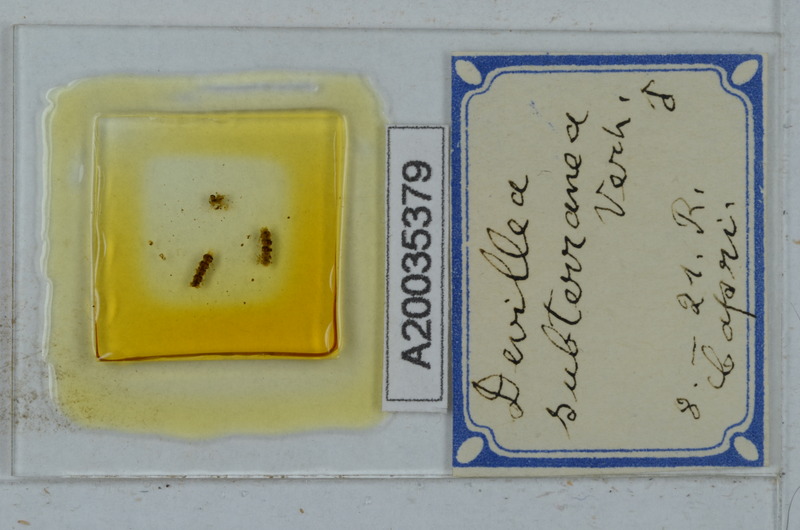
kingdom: Animalia
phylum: Arthropoda
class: Diplopoda
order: Polydesmida
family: Xystodesmidae
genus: Devillea
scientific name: Devillea subterranea
